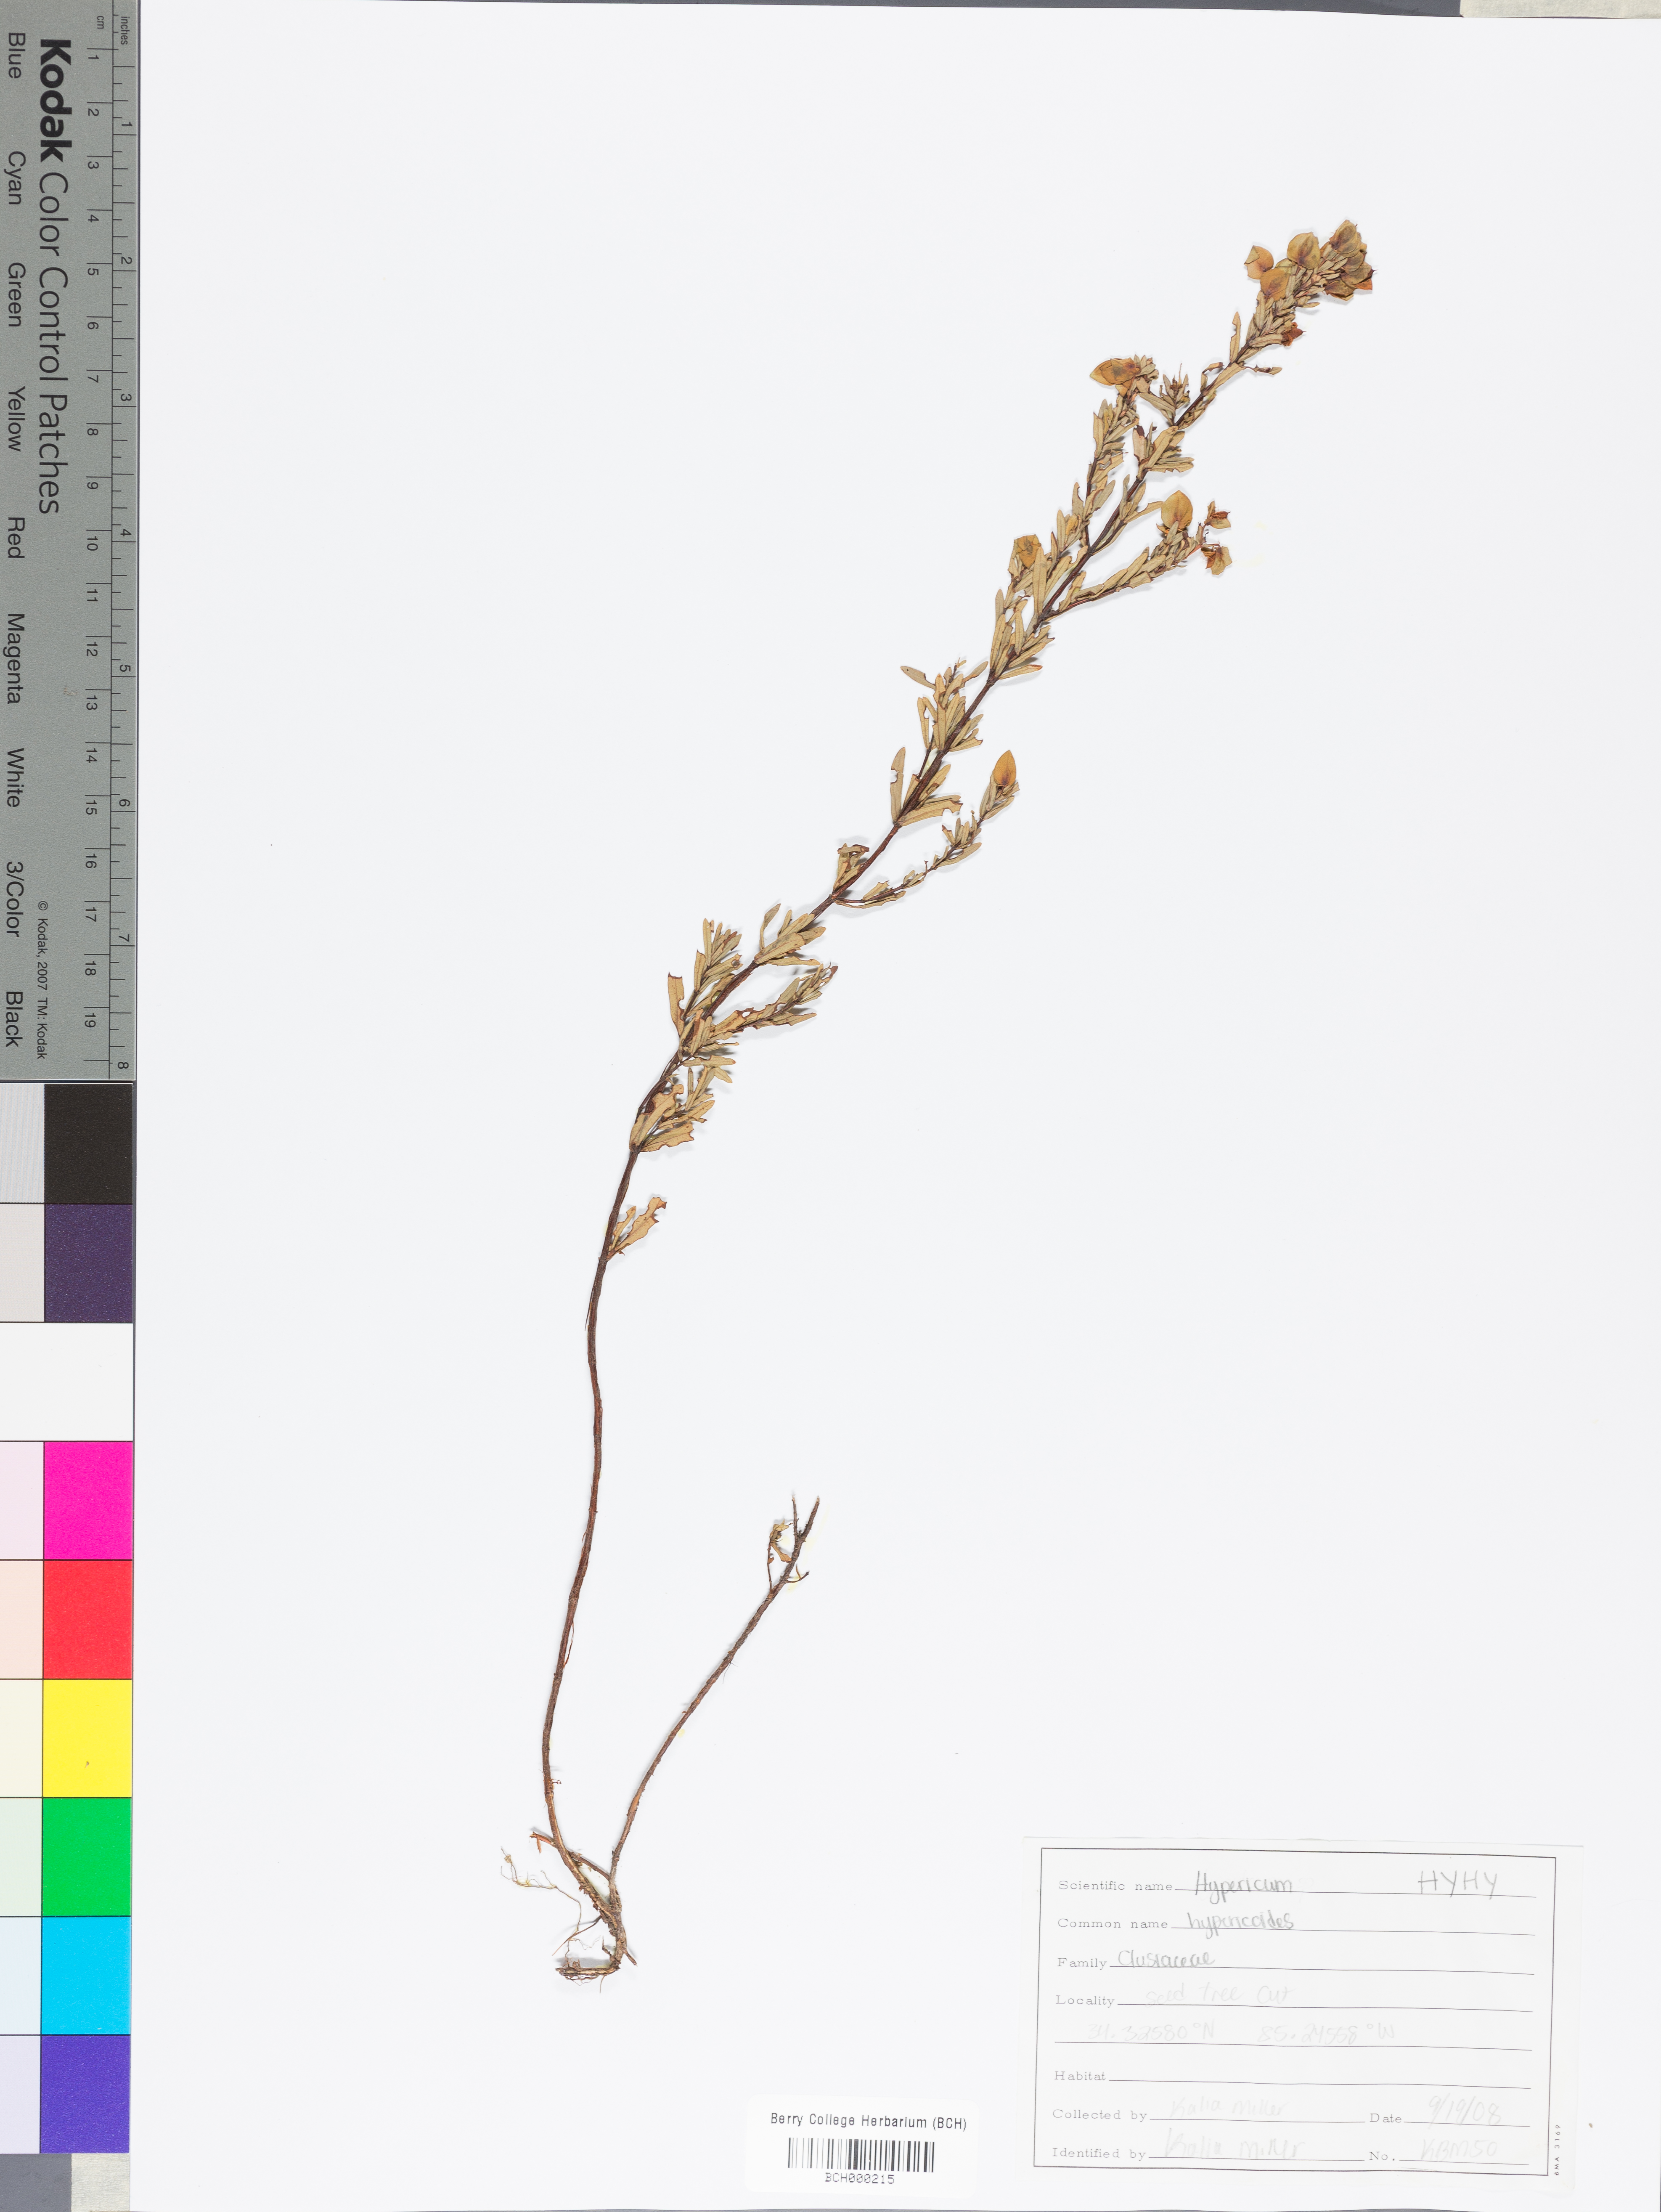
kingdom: Plantae
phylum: Tracheophyta
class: Magnoliopsida
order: Malpighiales
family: Hypericaceae
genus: Hypericum
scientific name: Hypericum hypericoides
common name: St. andrew's cross
